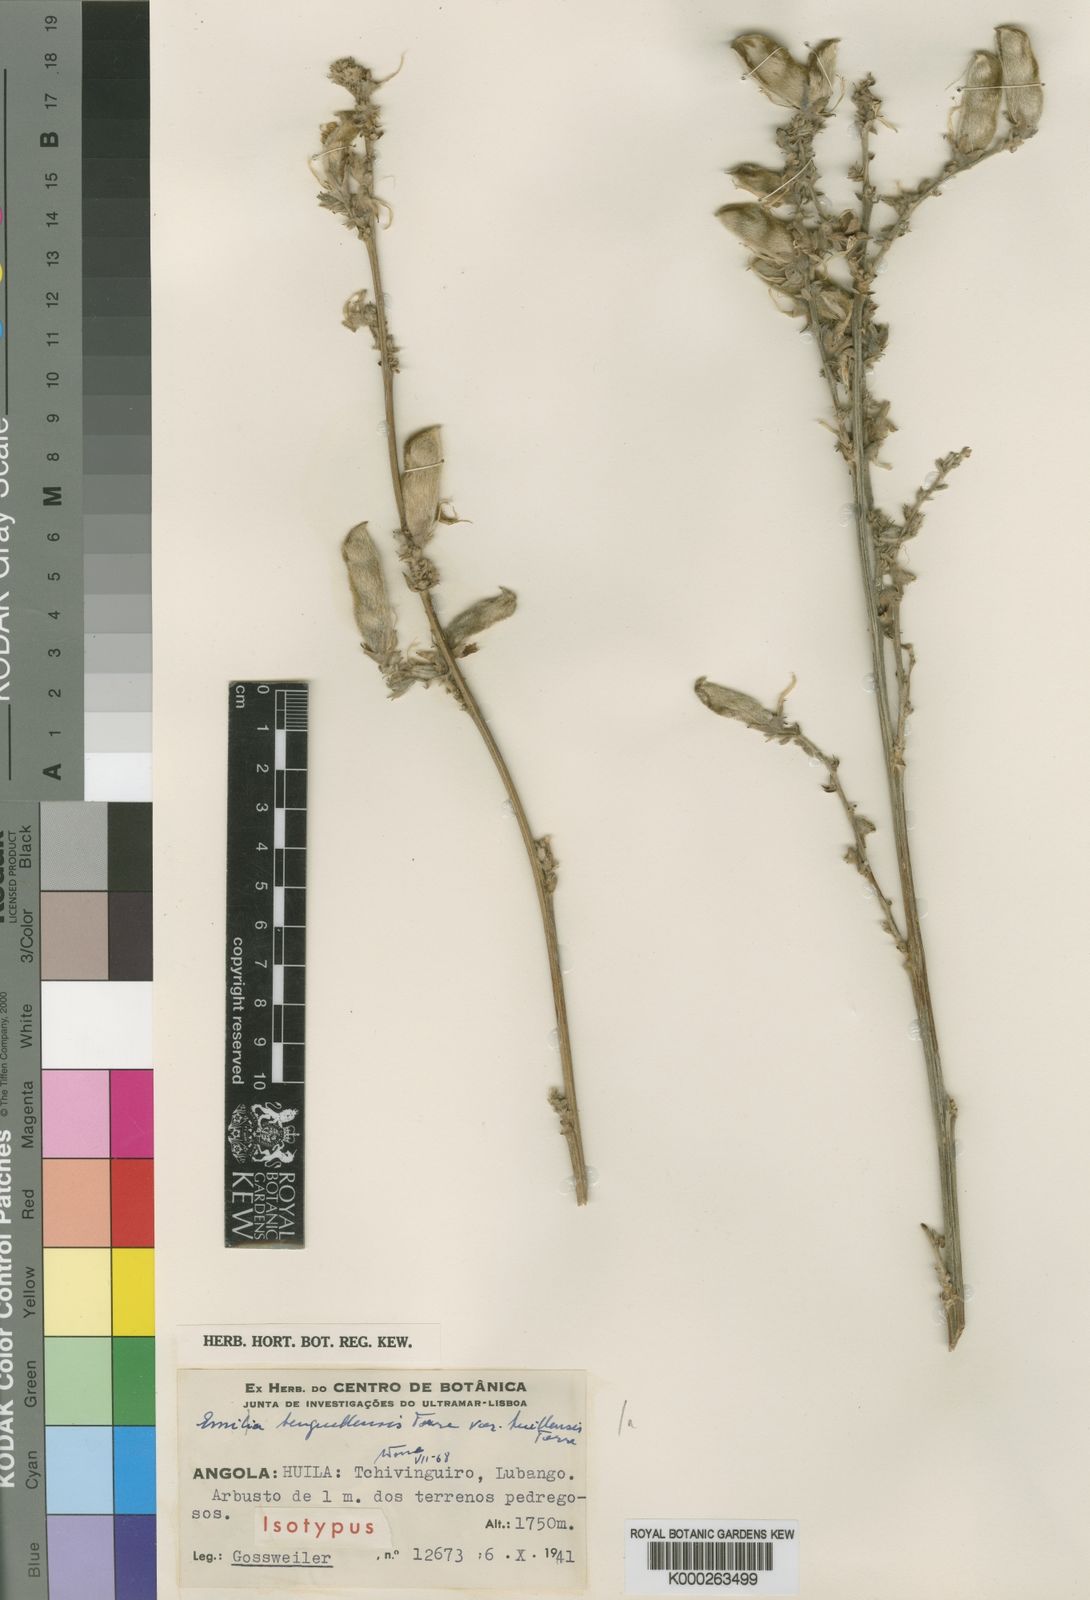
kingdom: Plantae
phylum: Tracheophyta
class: Magnoliopsida
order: Fabales
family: Fabaceae
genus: Eminia
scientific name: Eminia benguellensis
